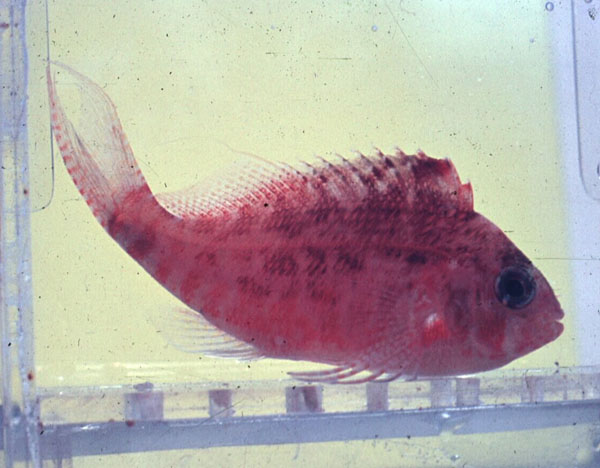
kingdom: Animalia
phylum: Chordata
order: Perciformes
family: Cirrhitidae
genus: Cyprinocirrhites
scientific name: Cyprinocirrhites polyactis
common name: Swallowtail hawkfish
